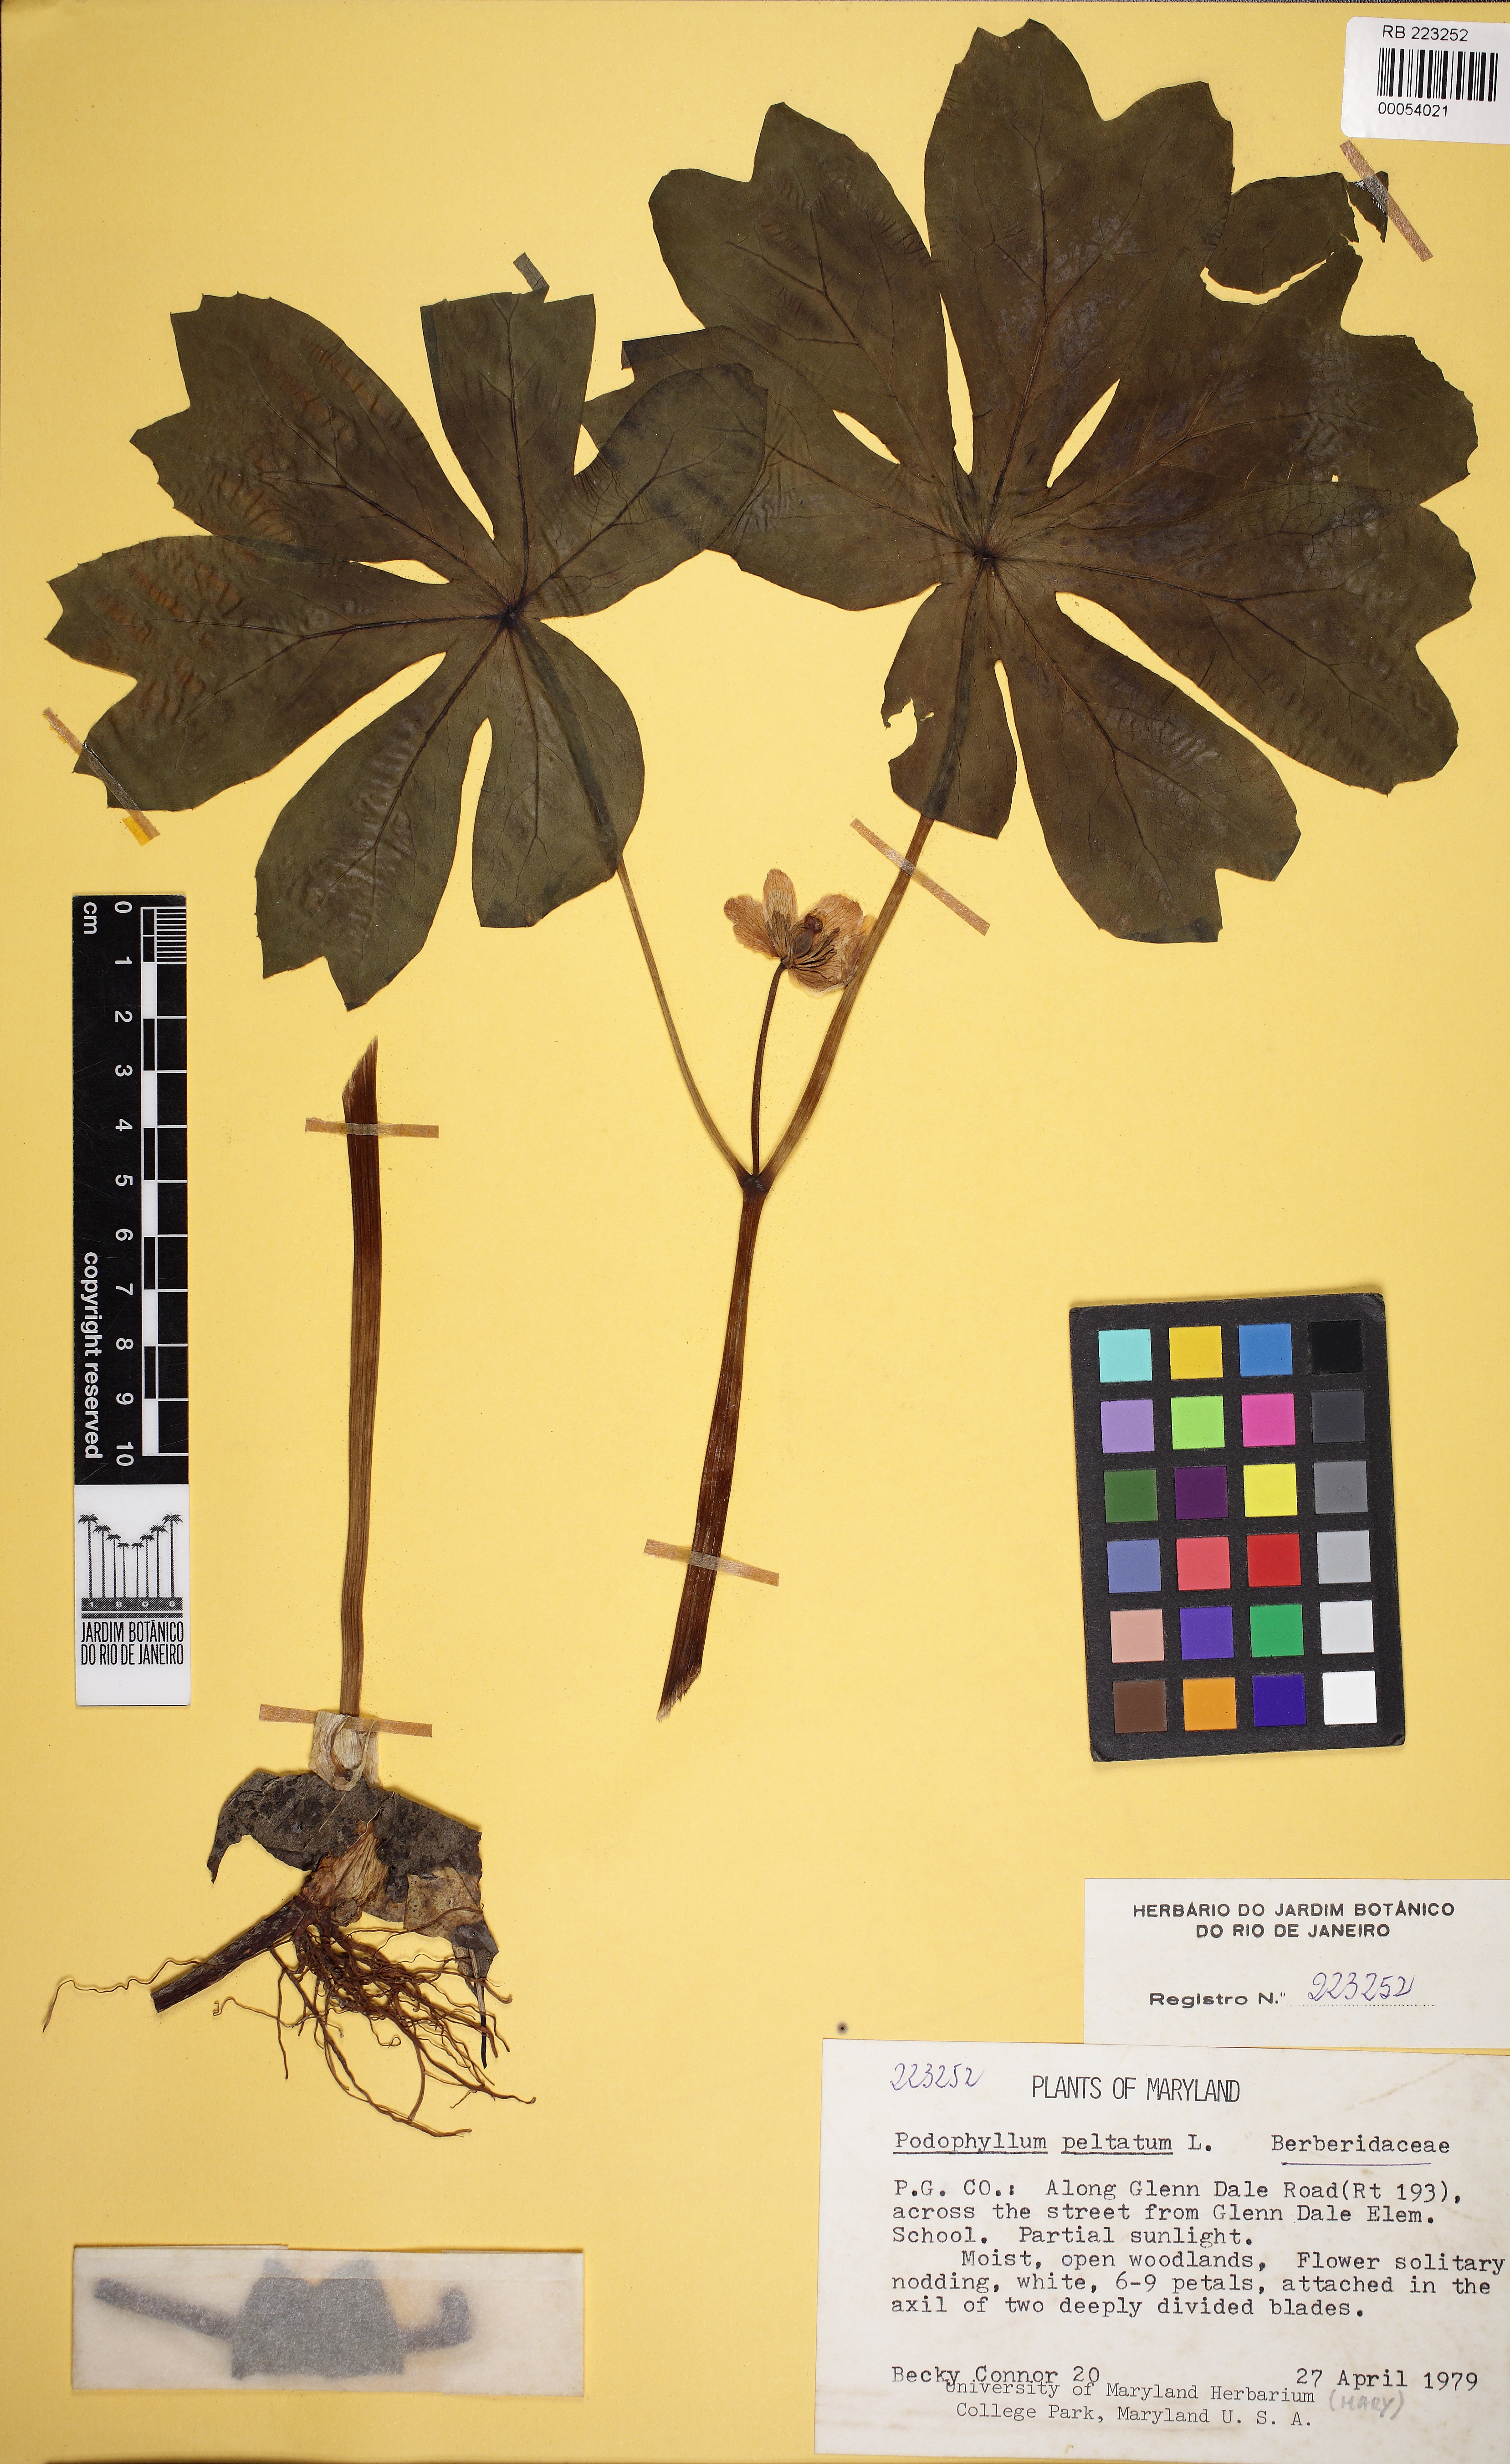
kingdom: Plantae
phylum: Tracheophyta
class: Magnoliopsida
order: Ranunculales
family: Berberidaceae
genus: Podophyllum
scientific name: Podophyllum peltatum
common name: Wild mandrake
